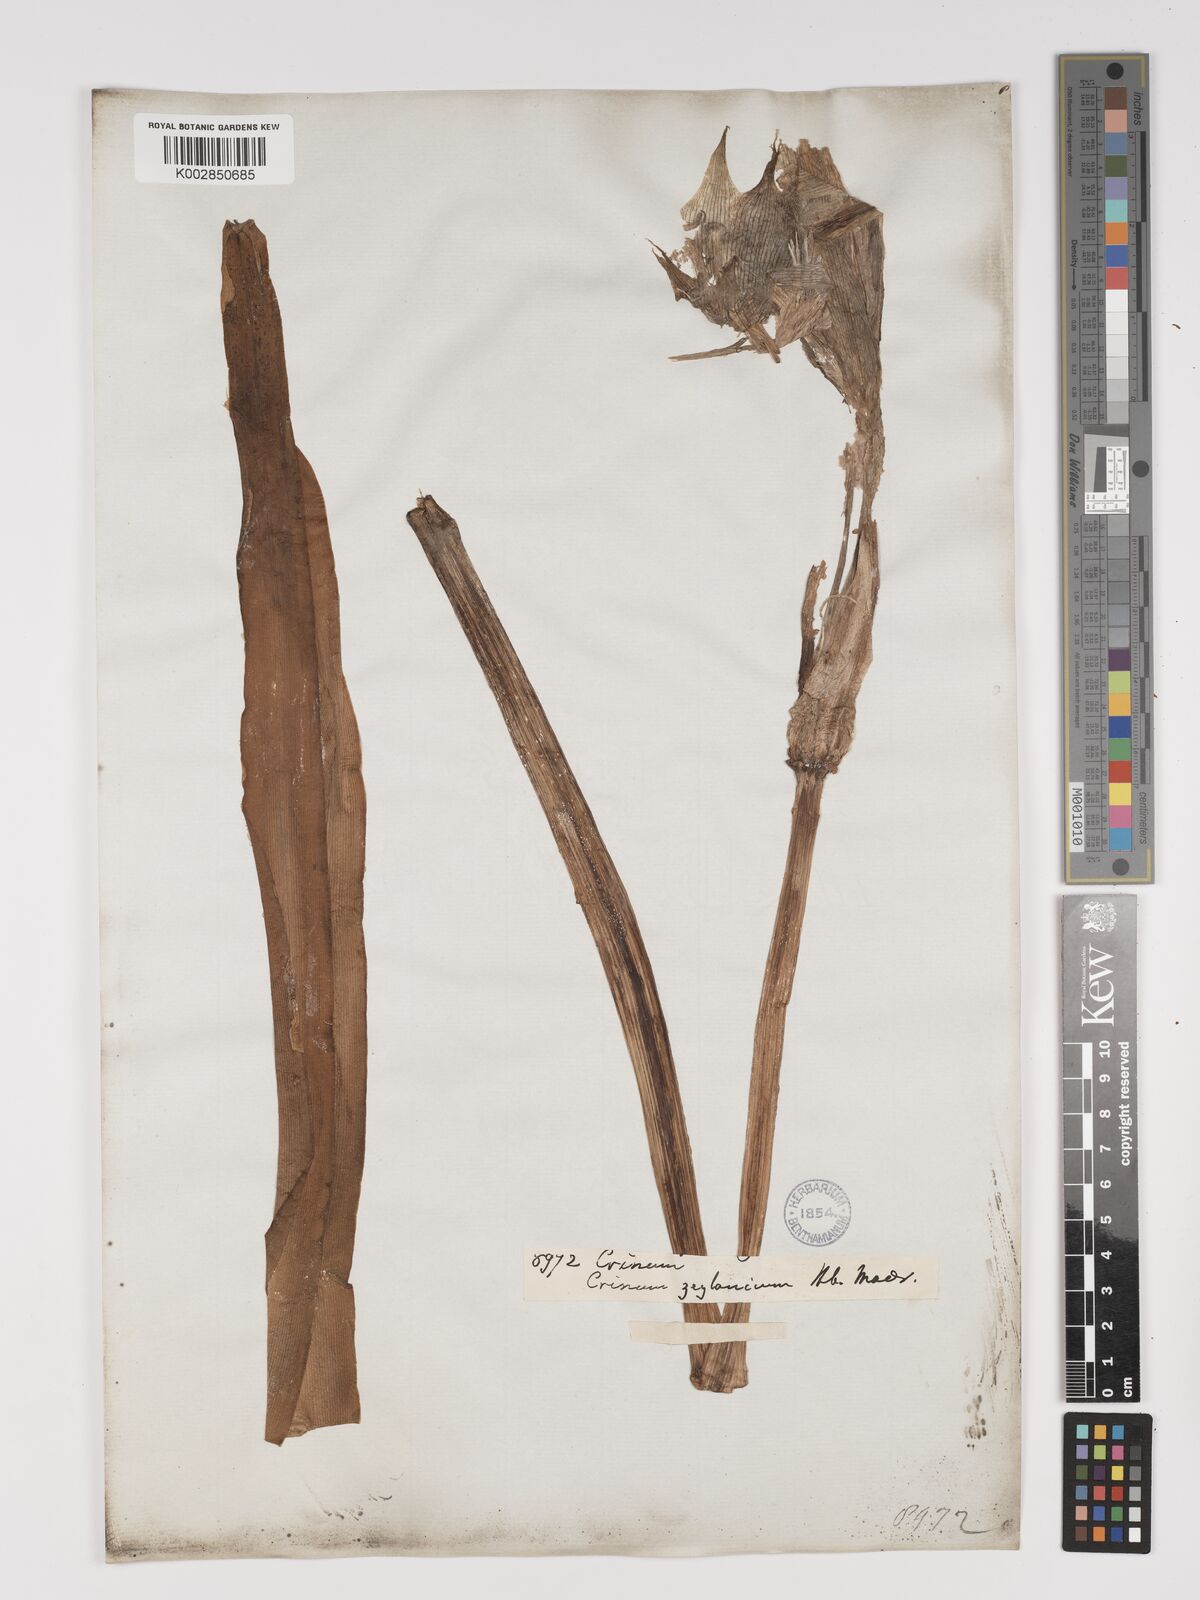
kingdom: Plantae
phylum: Tracheophyta
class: Liliopsida
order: Asparagales
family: Amaryllidaceae
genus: Crinum
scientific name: Crinum zeylanicum
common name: Ceylon swamplily
